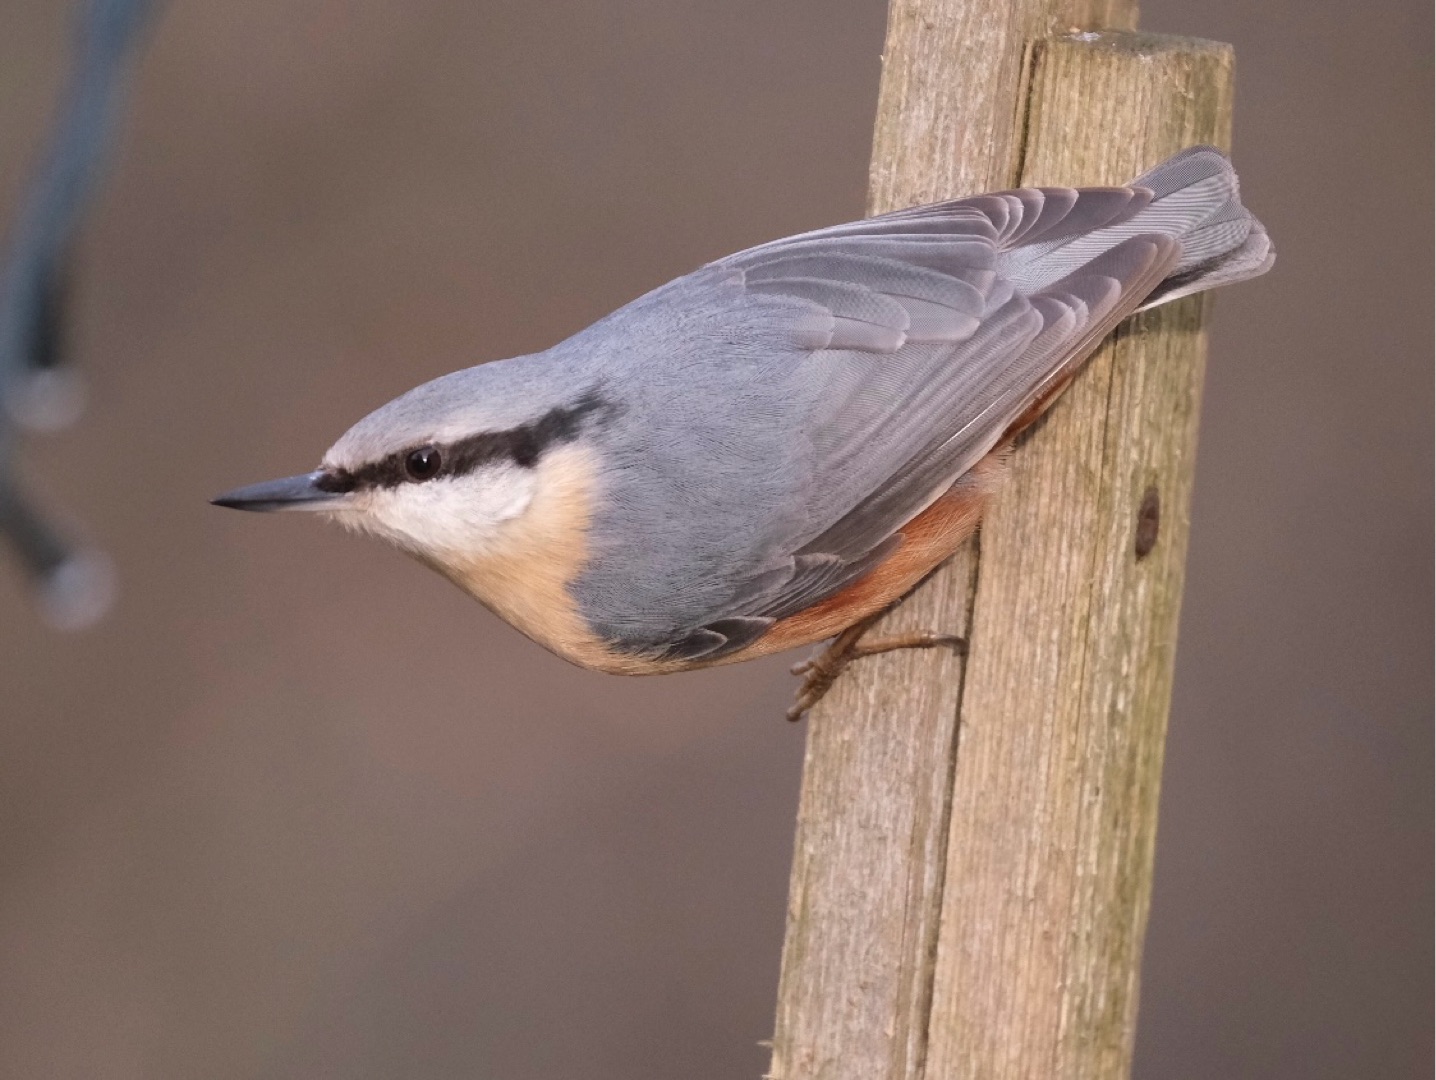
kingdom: Animalia
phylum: Chordata
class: Aves
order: Passeriformes
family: Sittidae
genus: Sitta
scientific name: Sitta europaea
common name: Spætmejse
